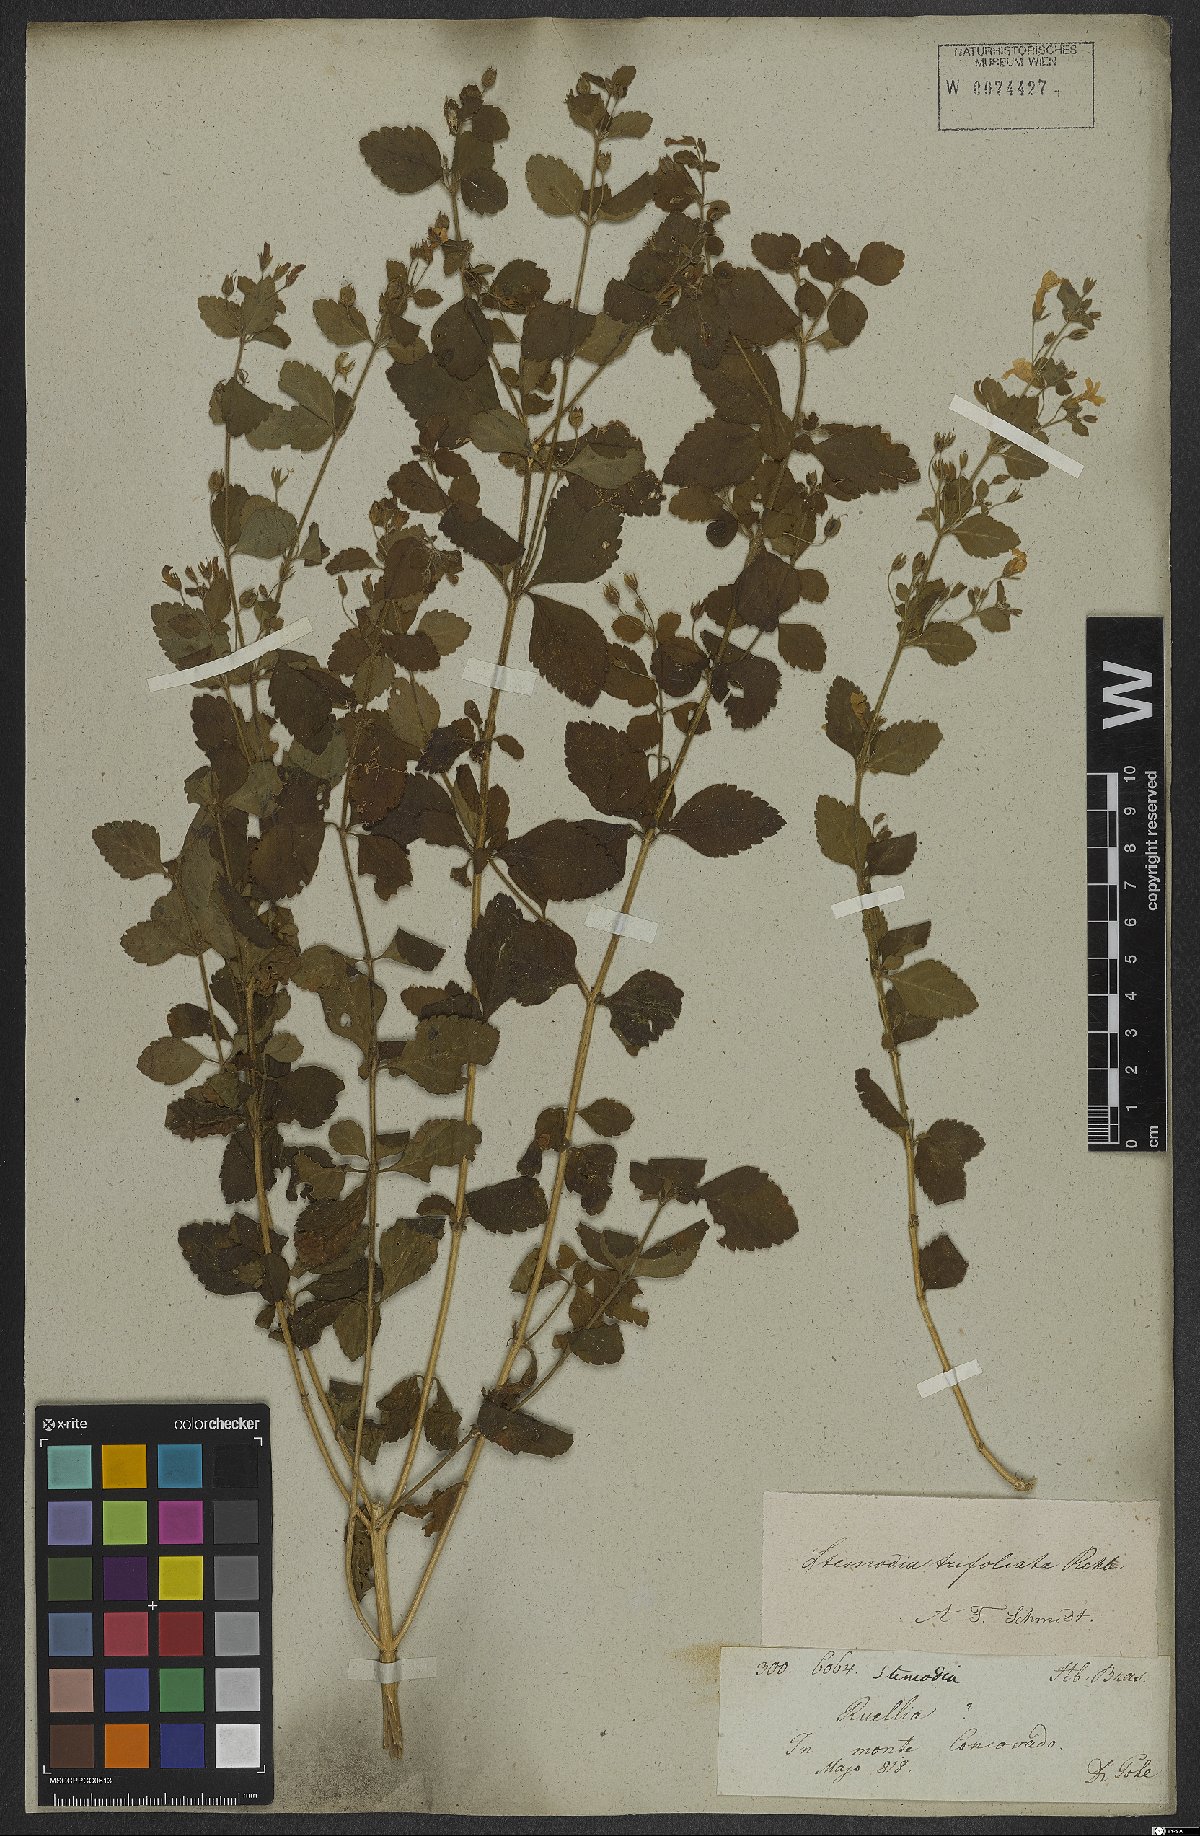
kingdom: Plantae
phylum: Tracheophyta
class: Magnoliopsida
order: Lamiales
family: Plantaginaceae
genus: Stemodia
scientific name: Stemodia trifoliata
